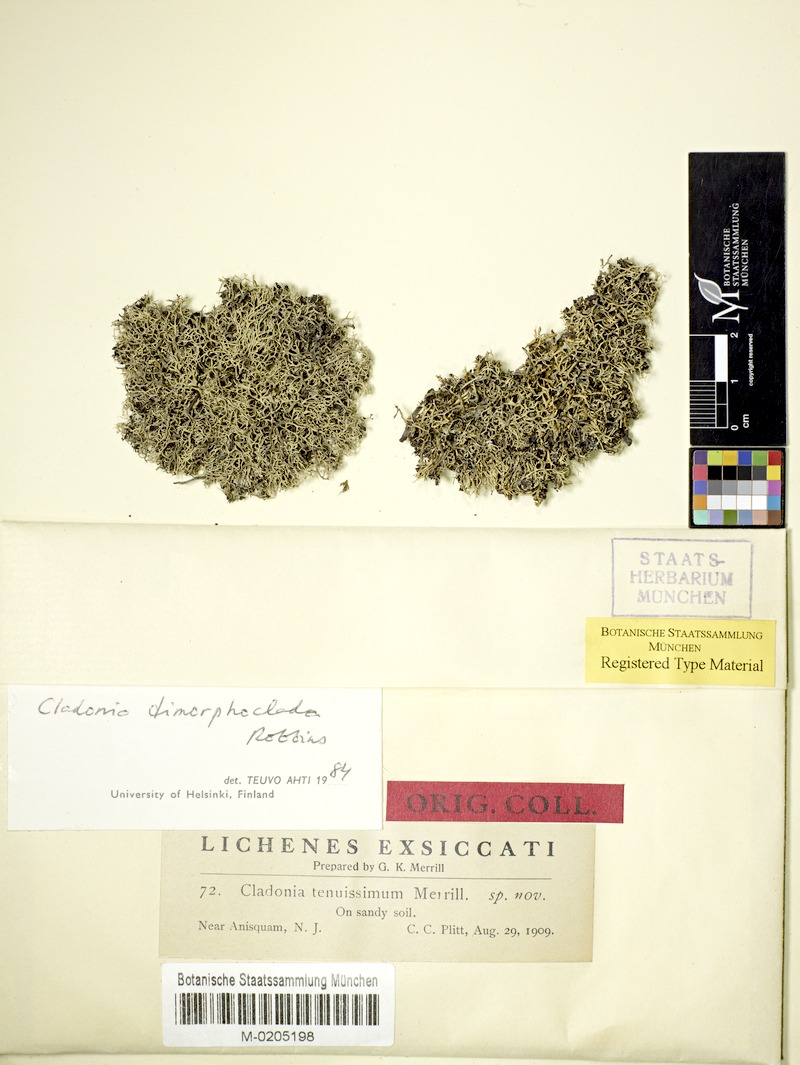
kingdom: Fungi
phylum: Ascomycota
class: Lecanoromycetes
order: Lecanorales
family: Cladoniaceae
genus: Cladonia
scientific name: Cladonia dimorphoclada
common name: Prostrate thorn cladonia
